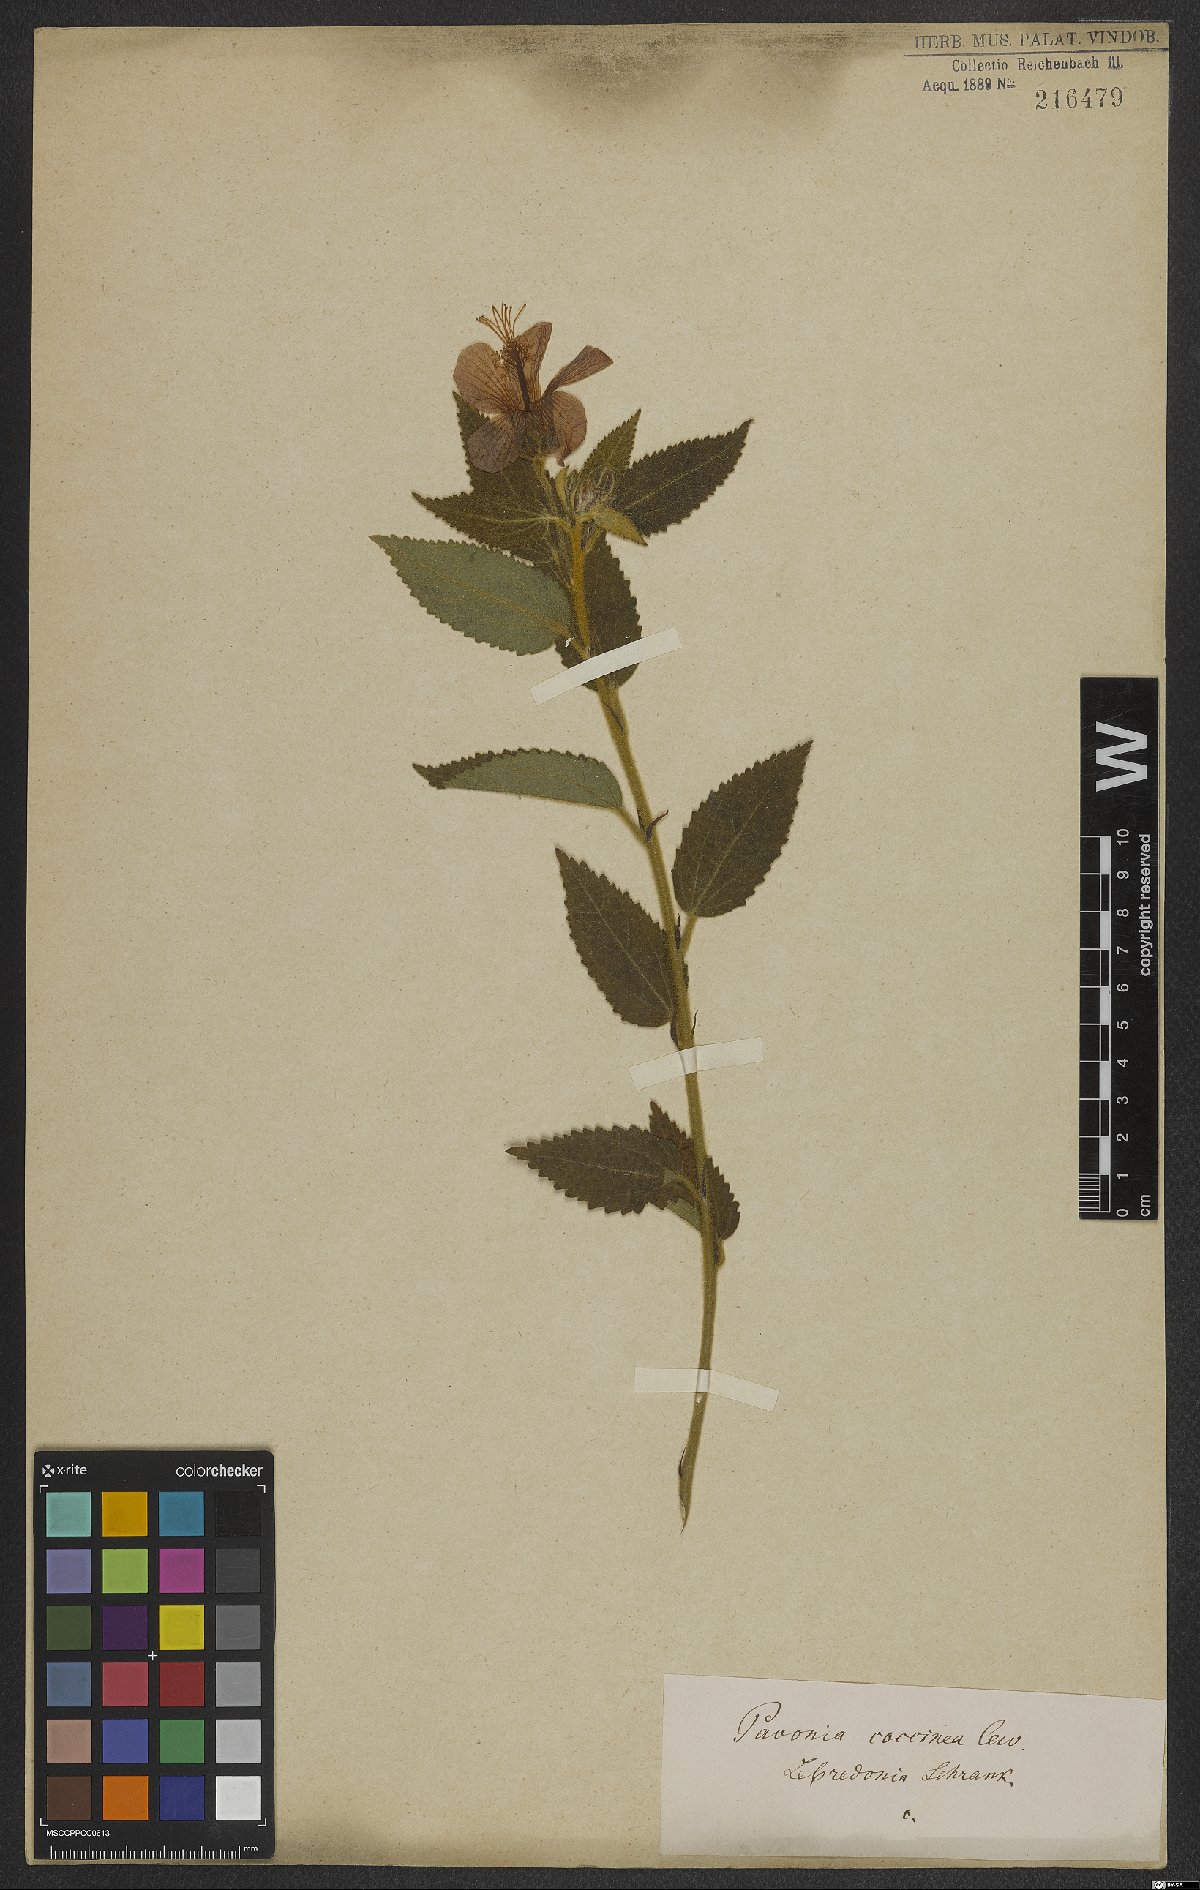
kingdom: Plantae
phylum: Tracheophyta
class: Magnoliopsida
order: Malvales
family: Malvaceae
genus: Pavonia
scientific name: Pavonia schrankii
